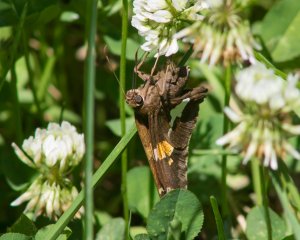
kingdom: Animalia
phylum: Arthropoda
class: Insecta
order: Lepidoptera
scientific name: Lepidoptera
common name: Butterflies
